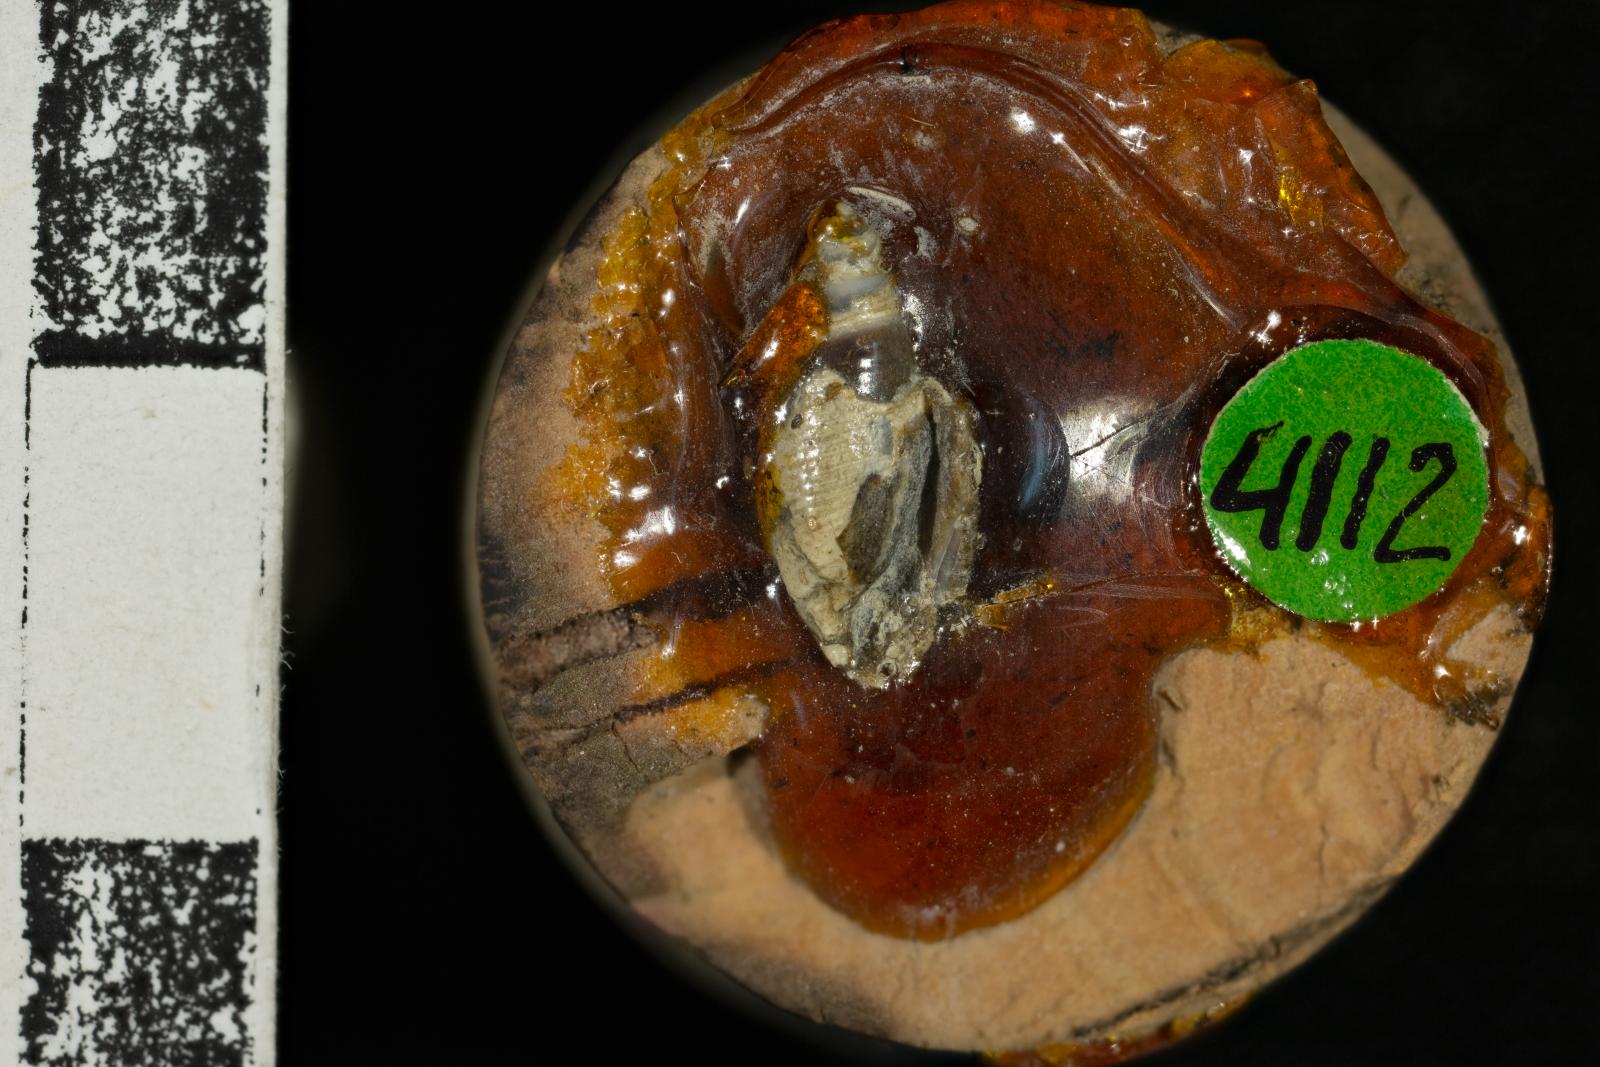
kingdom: Animalia
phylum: Mollusca
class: Gastropoda
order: Cephalaspidea
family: Acteonidae
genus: Nonacteonina
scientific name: Nonacteonina
